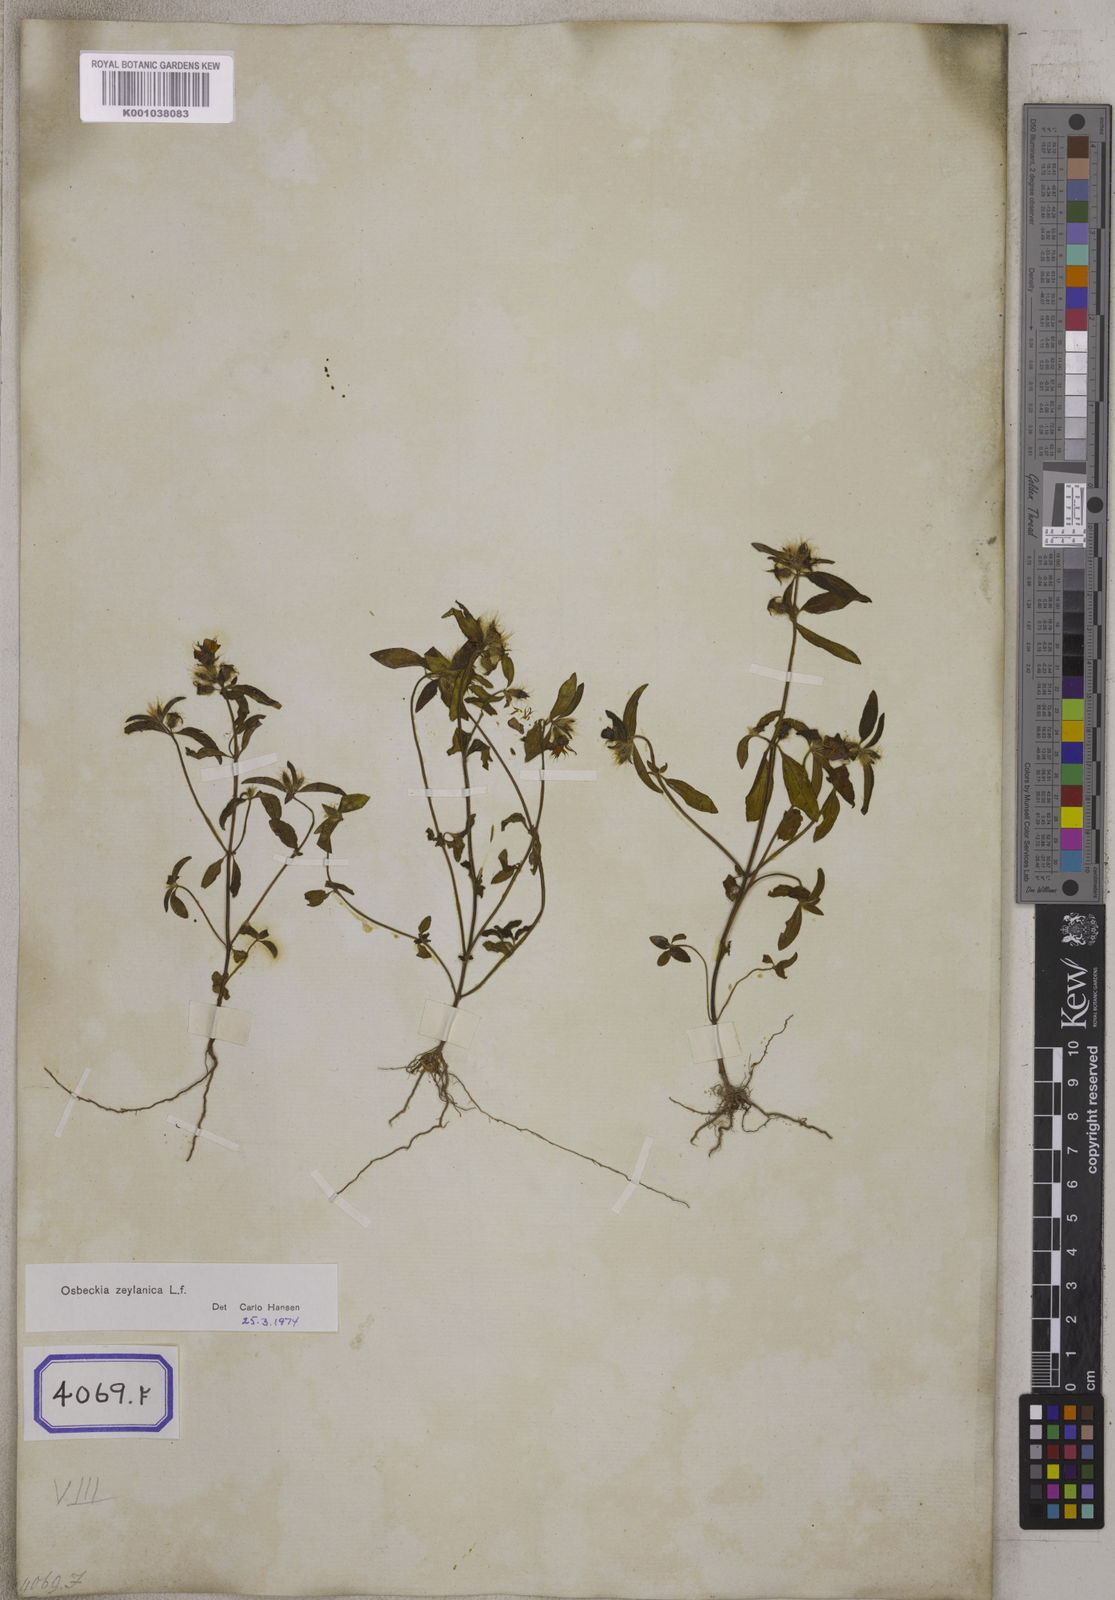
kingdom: Plantae
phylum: Tracheophyta
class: Magnoliopsida
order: Myrtales
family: Melastomataceae
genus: Osbeckia
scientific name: Osbeckia zeylanica
